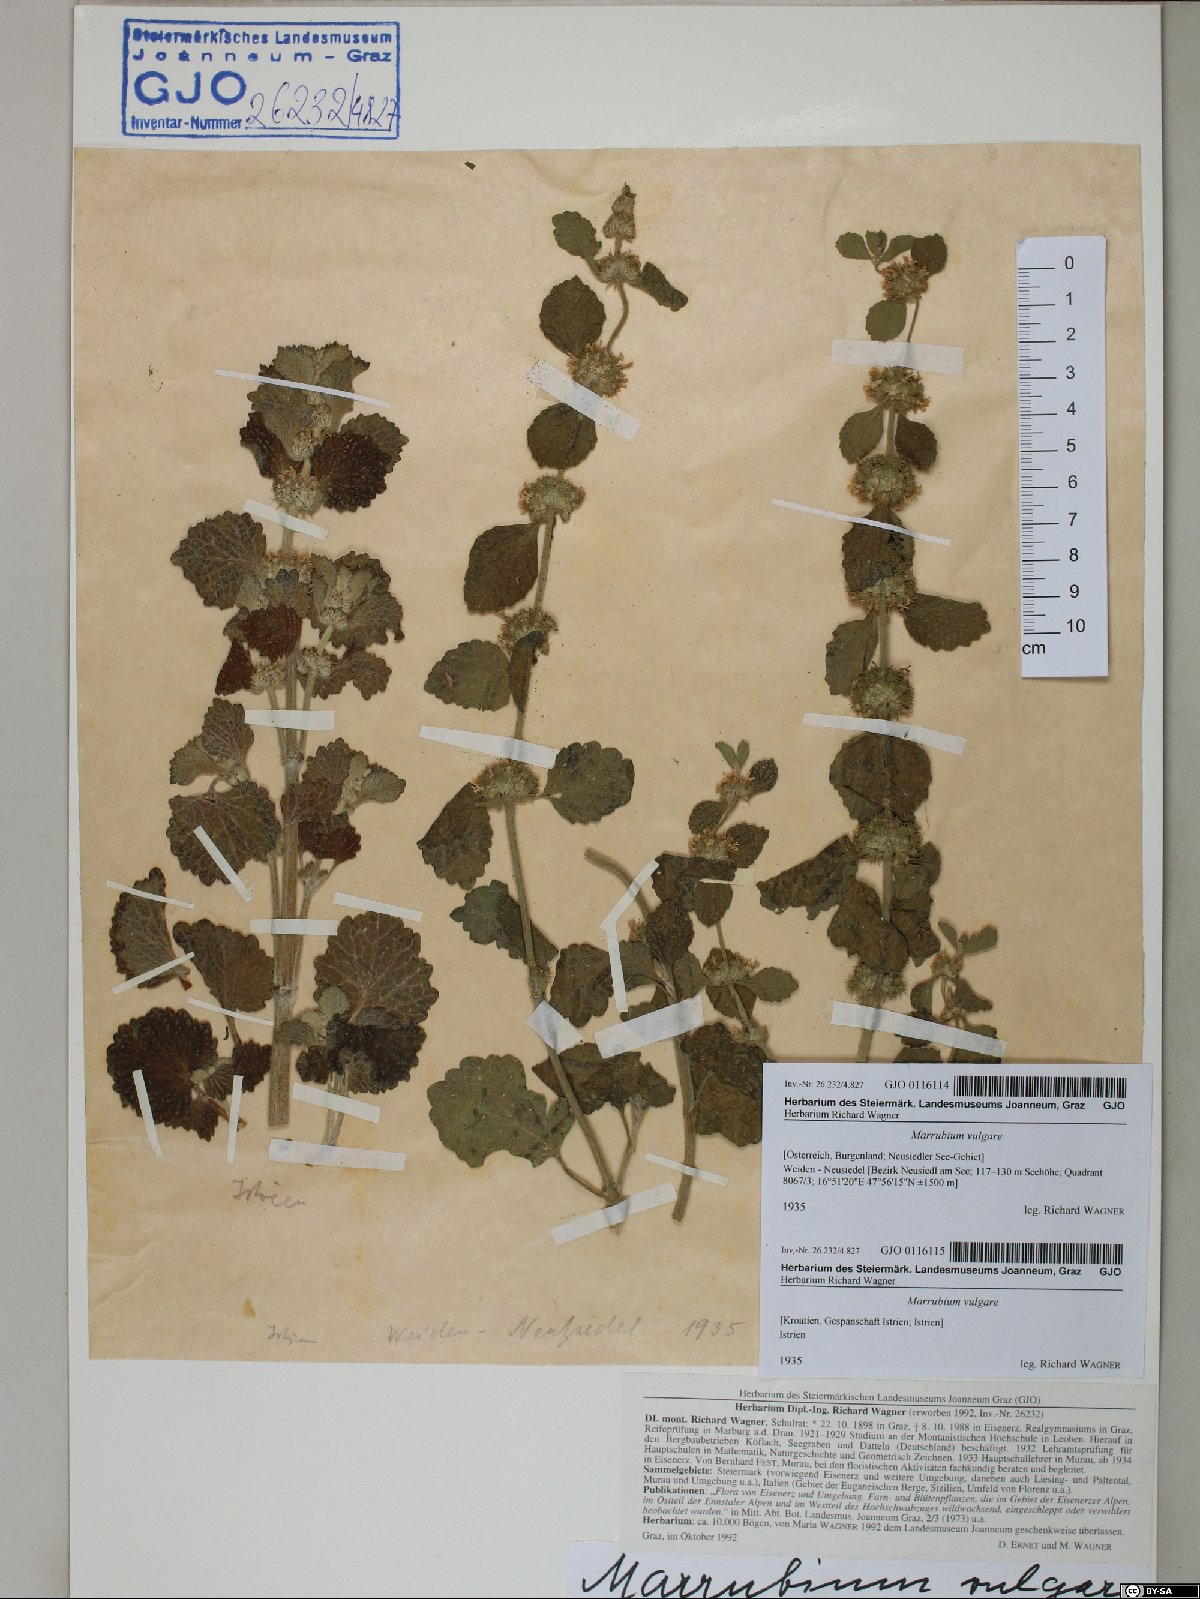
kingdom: Plantae
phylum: Tracheophyta
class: Magnoliopsida
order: Lamiales
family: Lamiaceae
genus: Marrubium
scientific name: Marrubium vulgare
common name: Horehound
